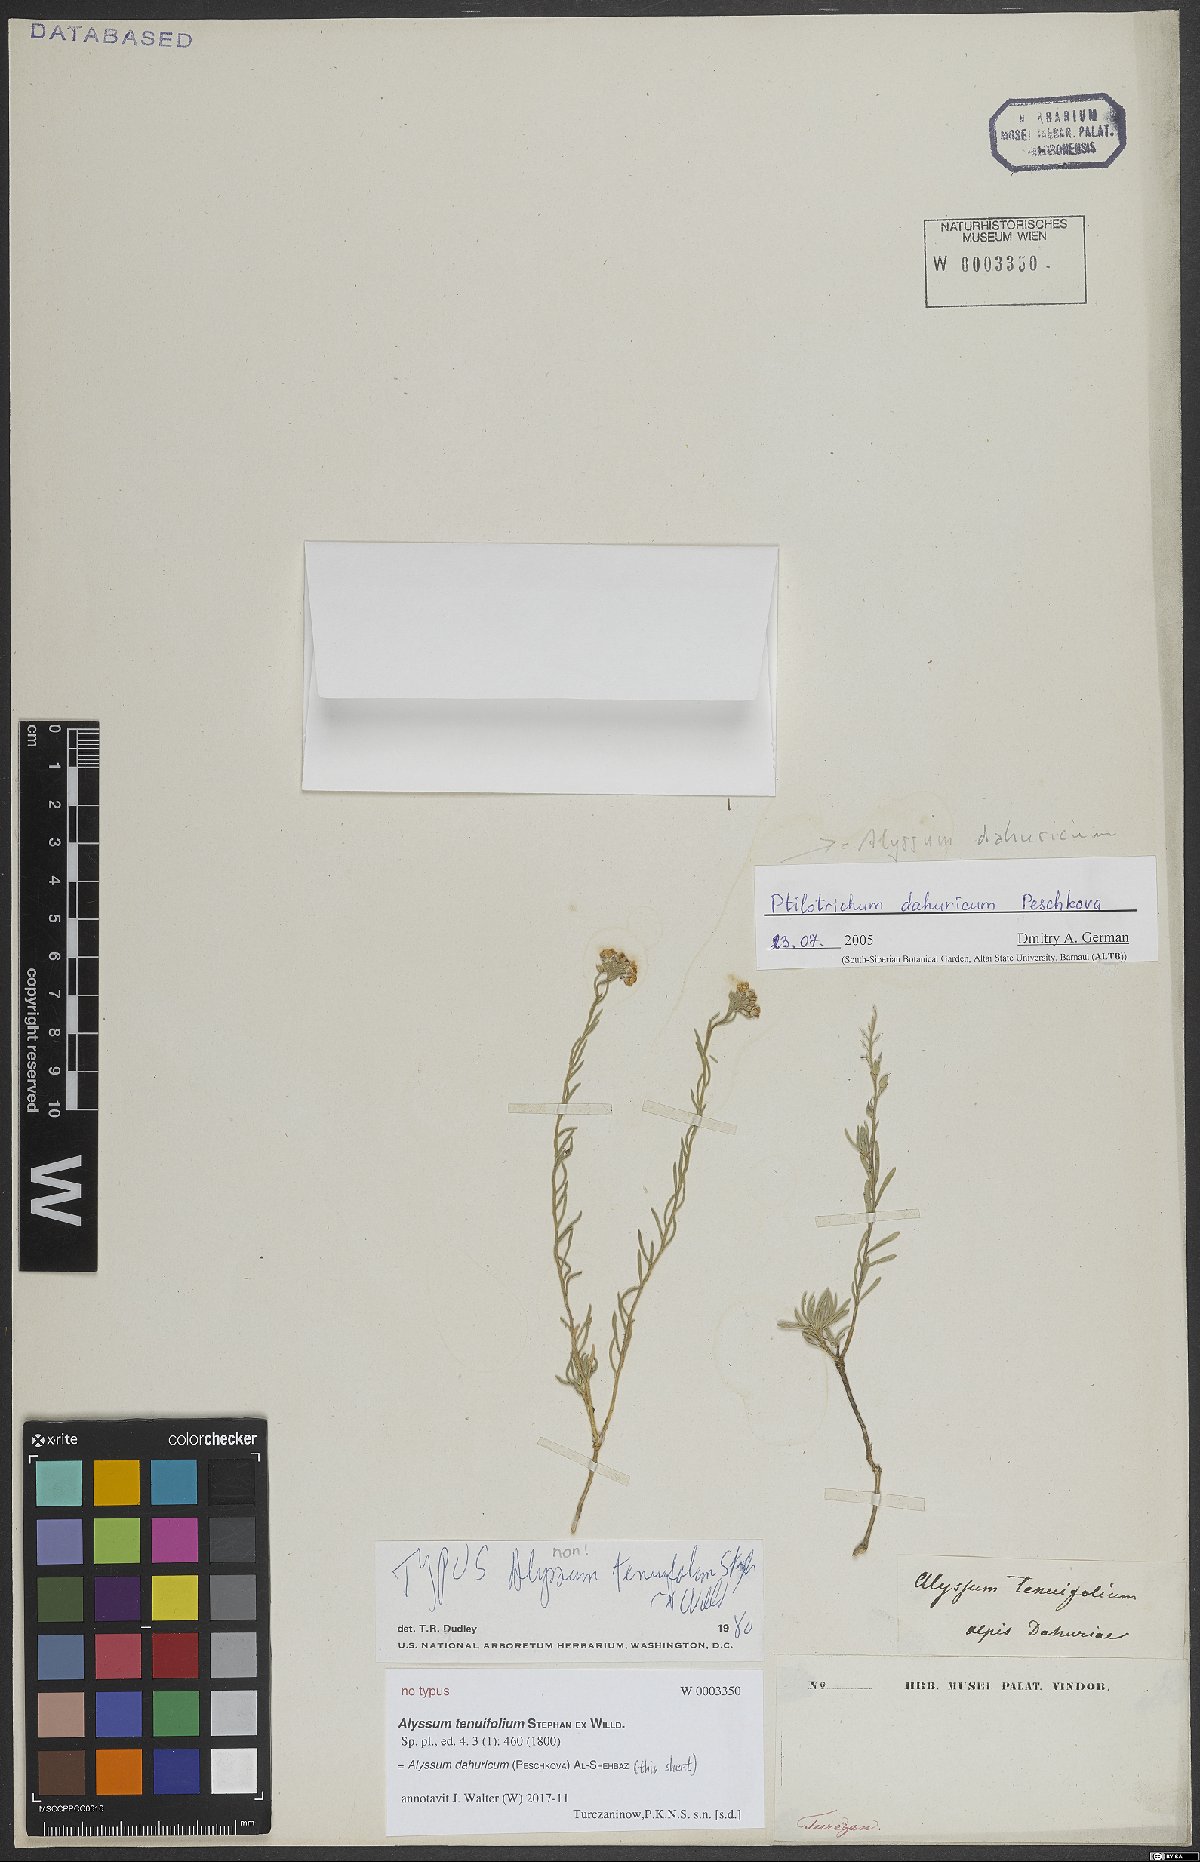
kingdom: Plantae
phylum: Tracheophyta
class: Magnoliopsida
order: Brassicales
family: Brassicaceae
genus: Stevenia
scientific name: Stevenia dahurica
